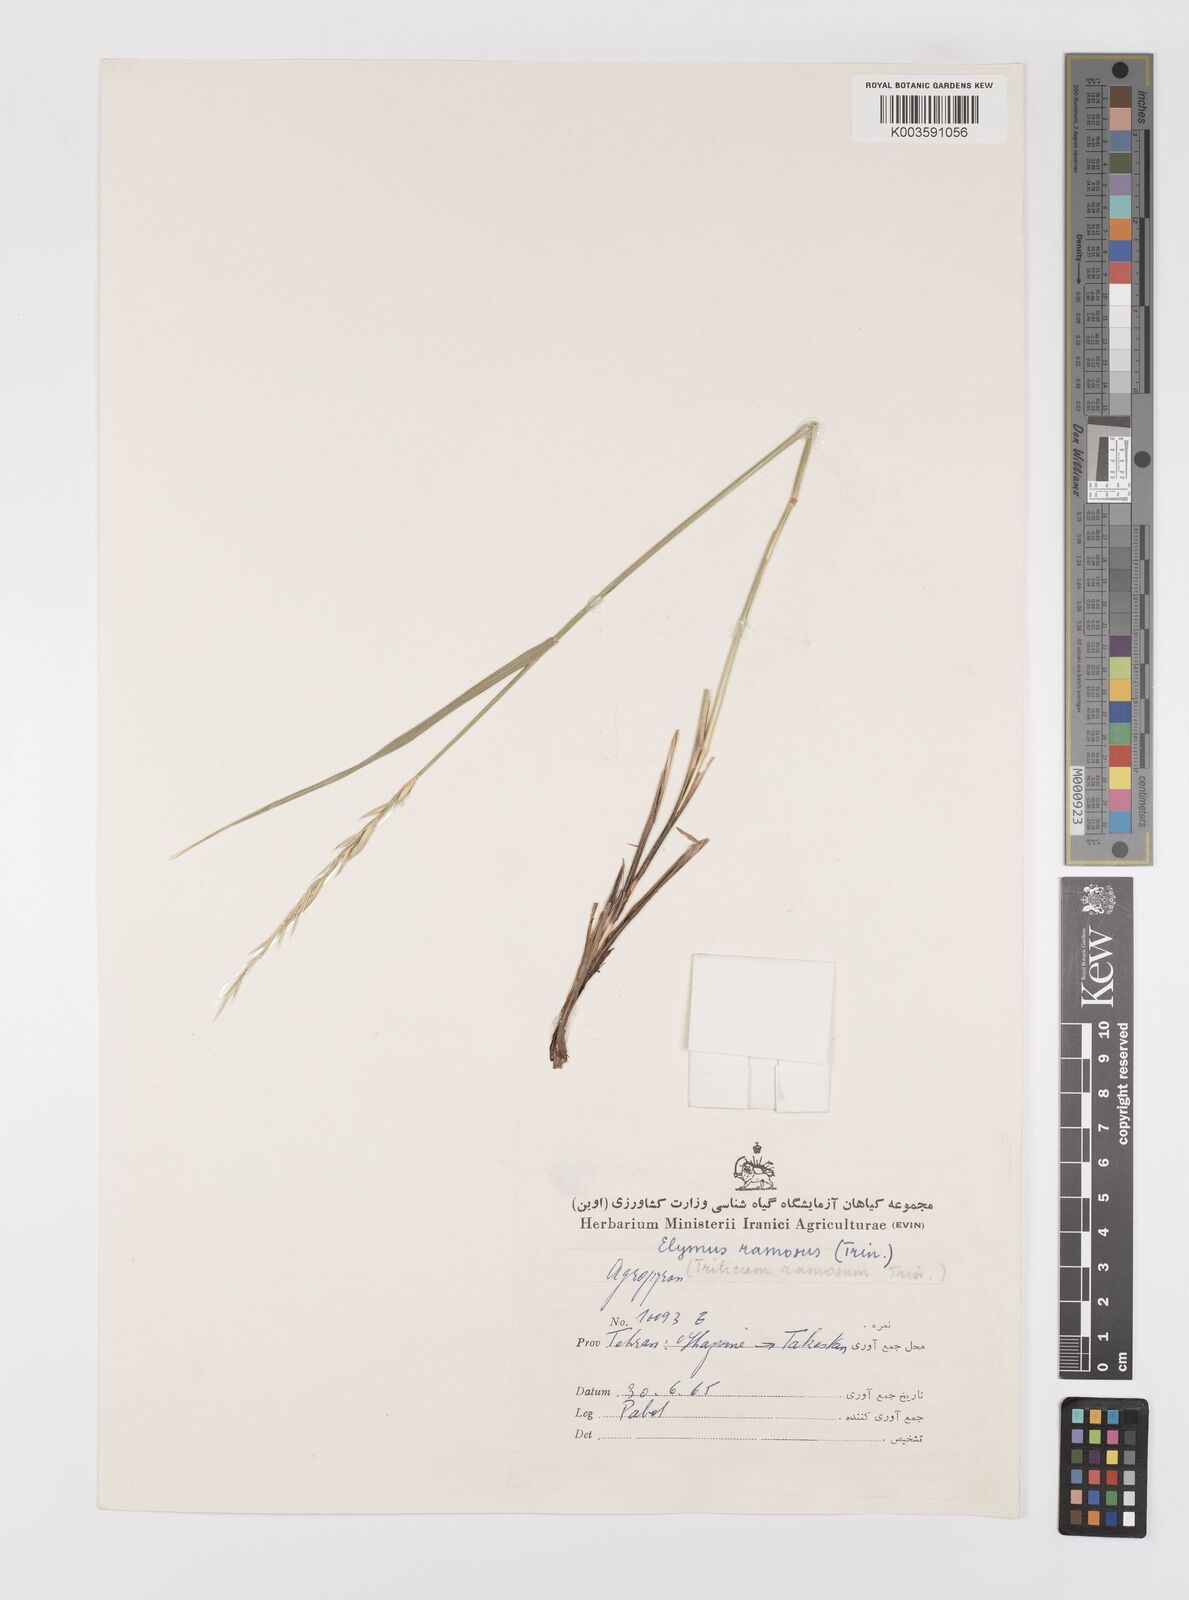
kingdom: Plantae
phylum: Tracheophyta
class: Liliopsida
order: Poales
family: Poaceae
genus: Leymus
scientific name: Leymus ramosus
